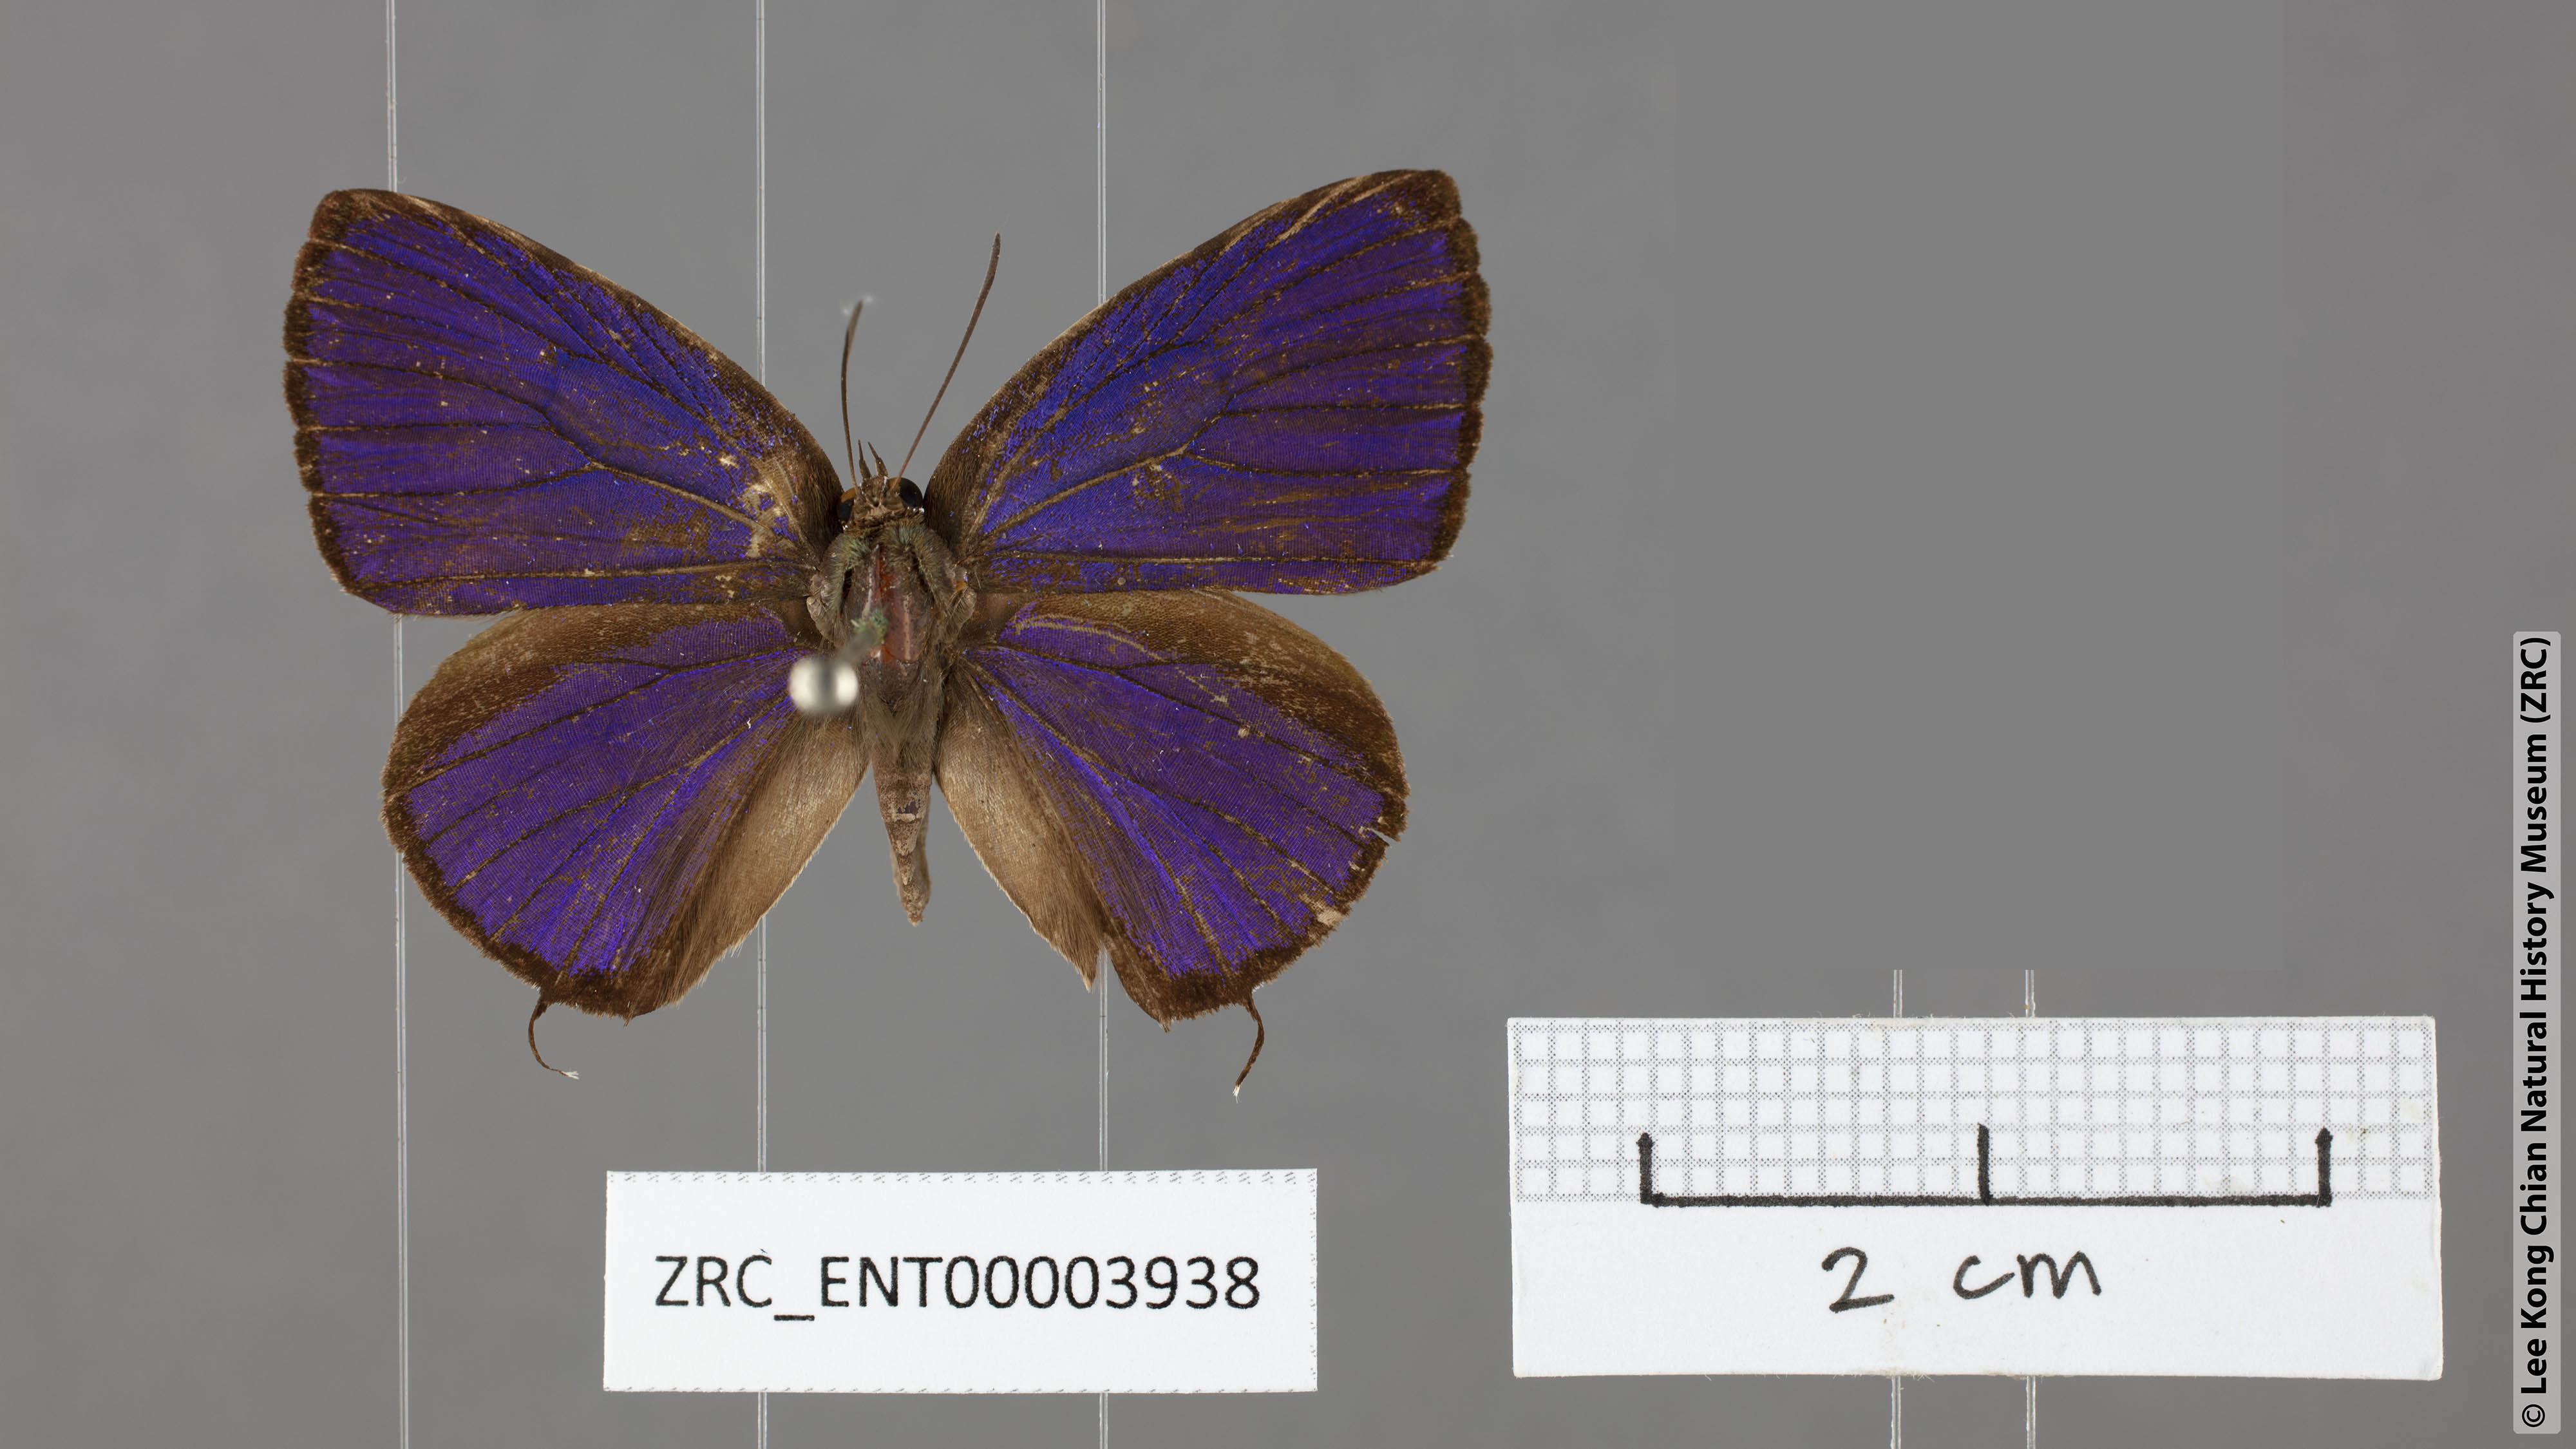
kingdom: Animalia
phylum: Arthropoda
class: Insecta
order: Lepidoptera
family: Lycaenidae
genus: Arhopala
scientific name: Arhopala azinis
